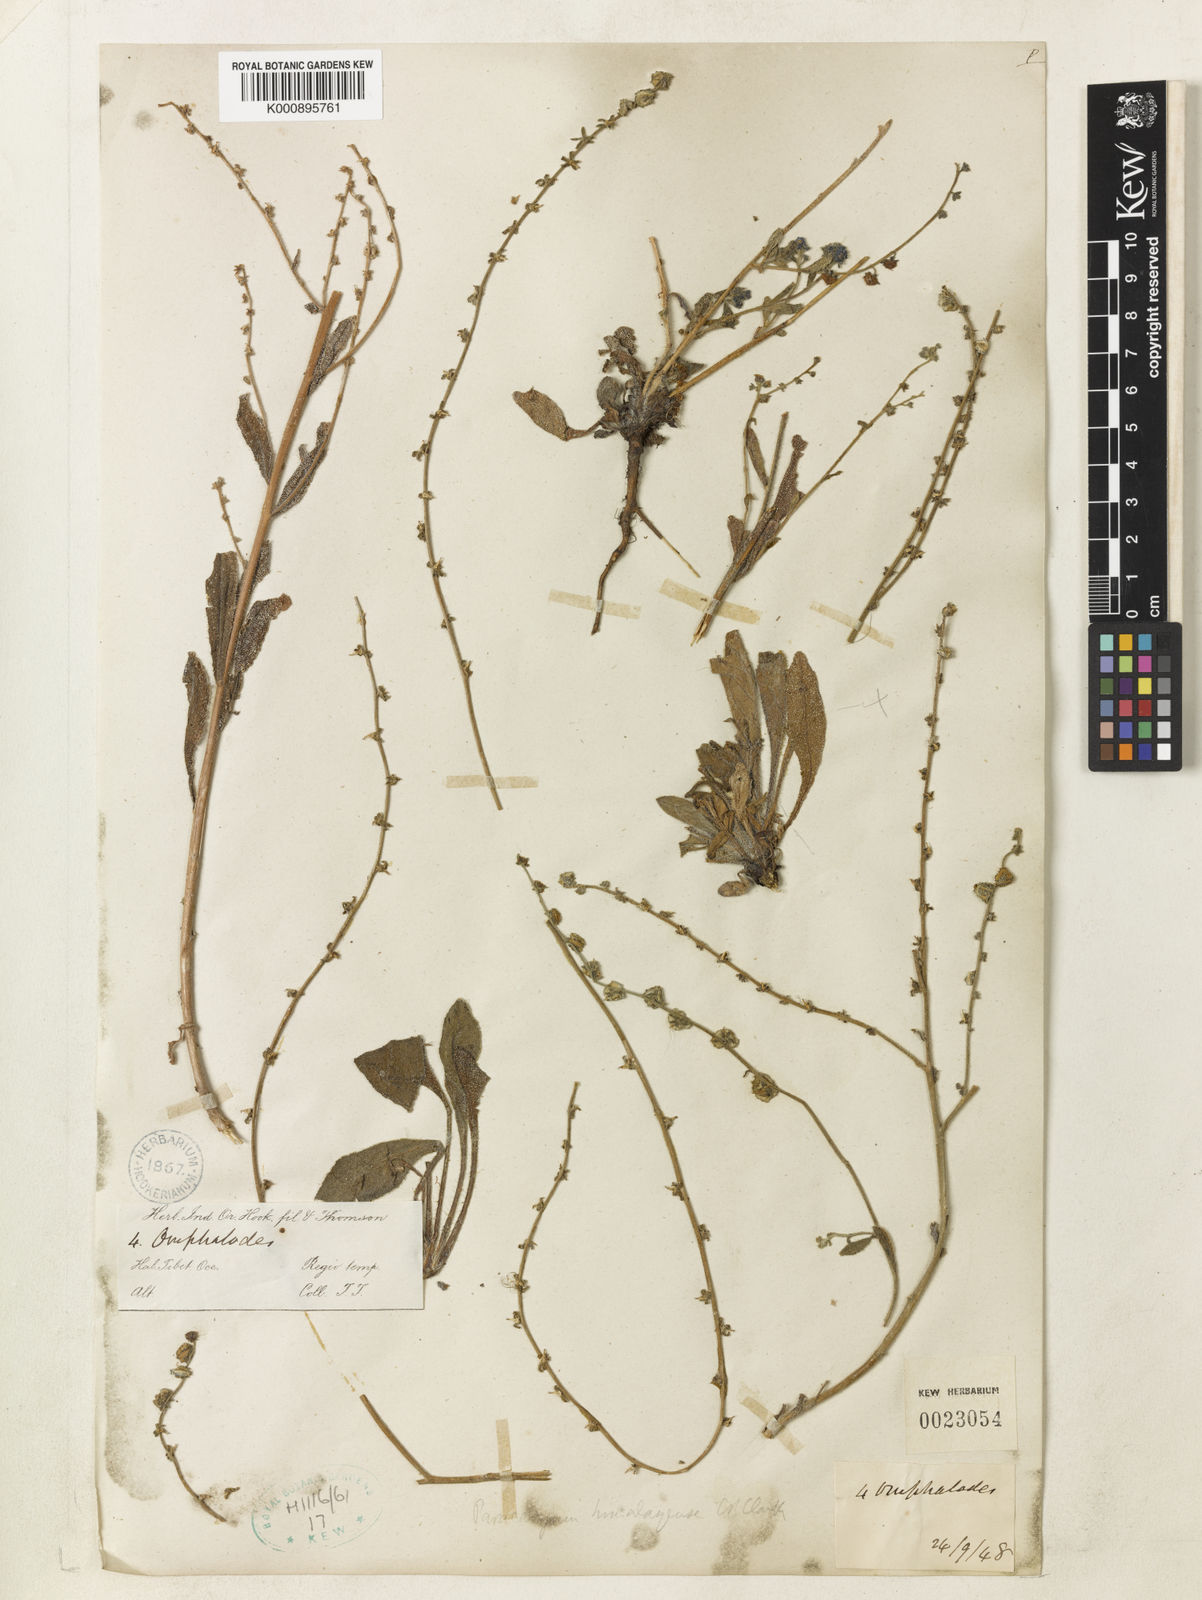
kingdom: Plantae
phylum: Tracheophyta
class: Magnoliopsida
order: Boraginales
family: Boraginaceae
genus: Paracaryum
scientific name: Paracaryum himalayense
